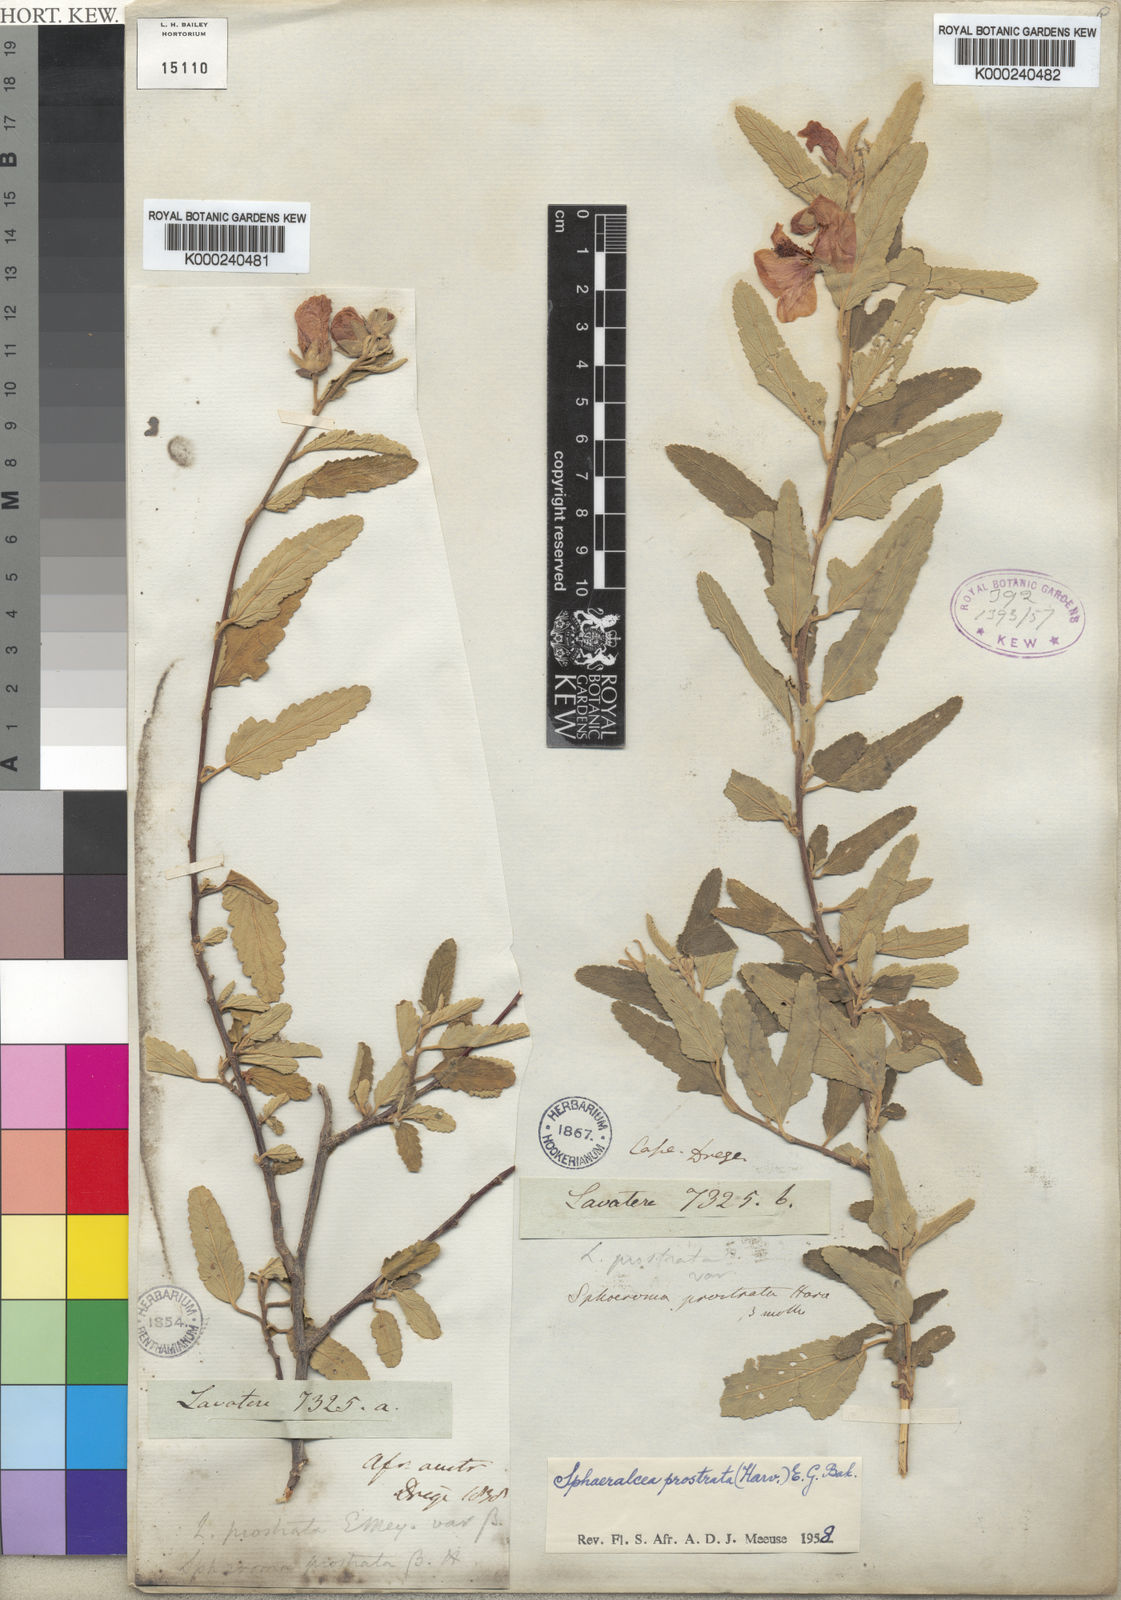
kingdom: Plantae
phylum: Tracheophyta
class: Magnoliopsida
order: Malvales
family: Malvaceae
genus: Sphaeralcea
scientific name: Sphaeralcea
